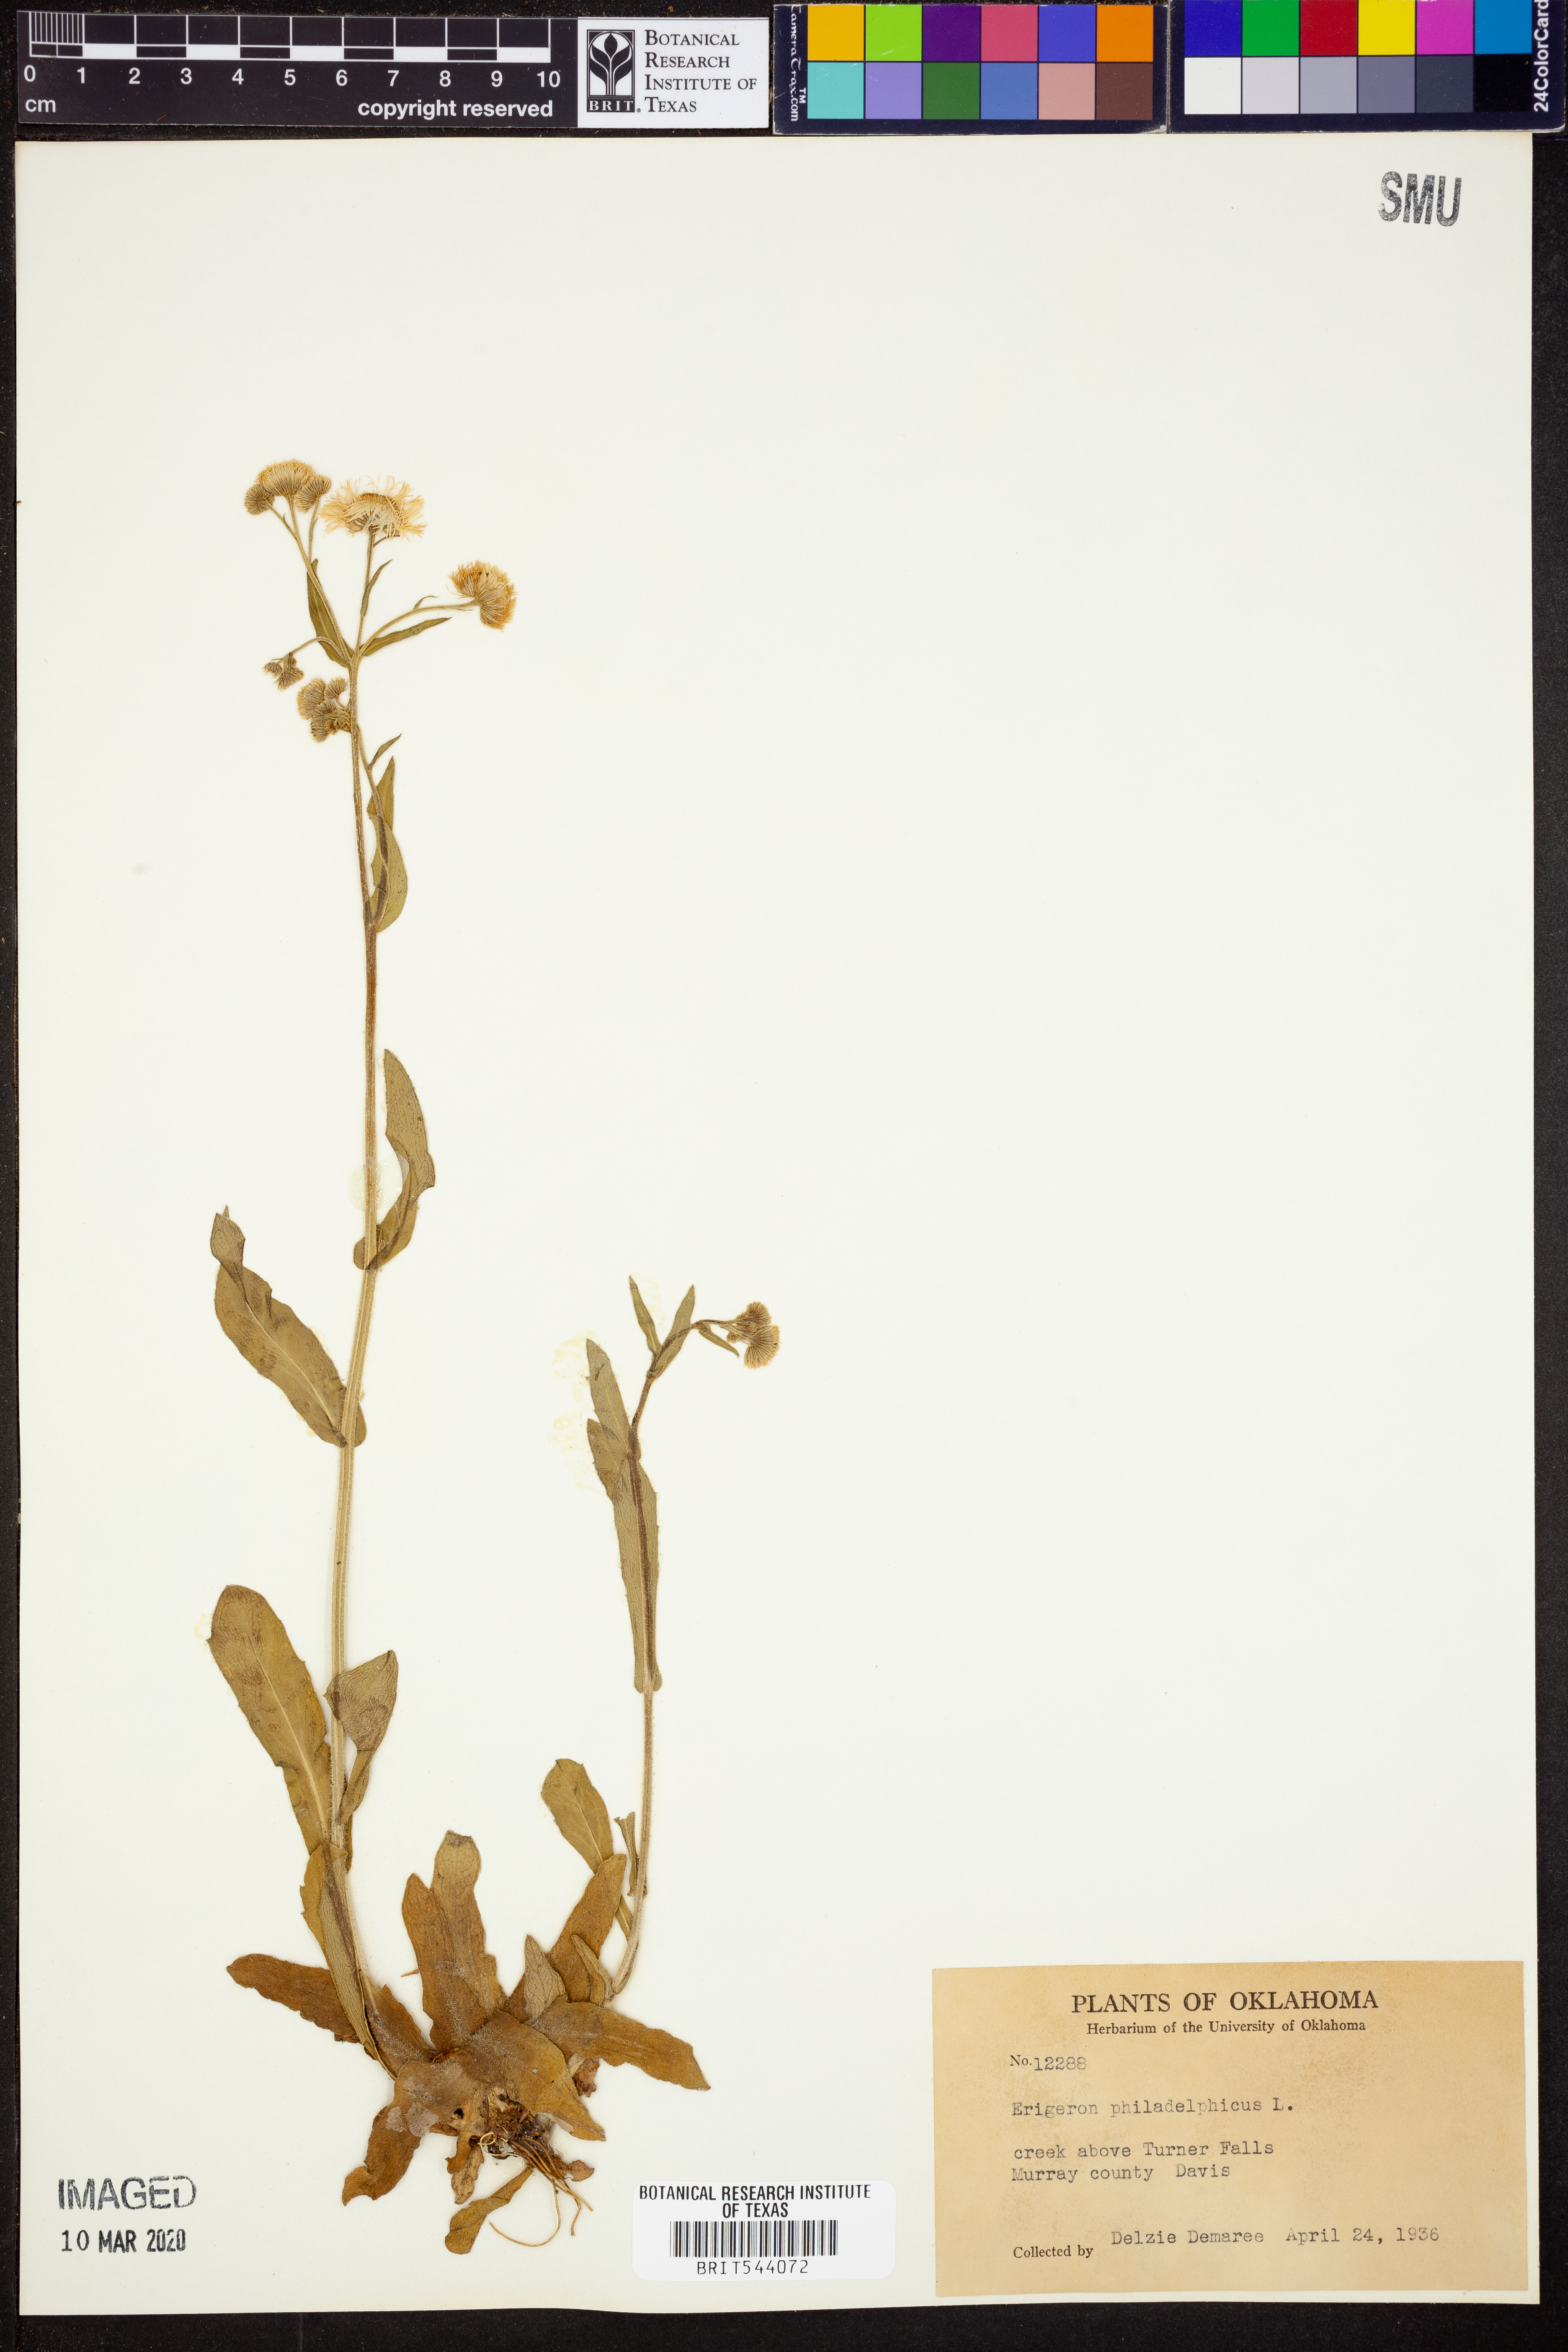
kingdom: Plantae
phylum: Tracheophyta
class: Magnoliopsida
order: Asterales
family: Asteraceae
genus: Erigeron
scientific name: Erigeron philadelphicus
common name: Robin's-plantain
